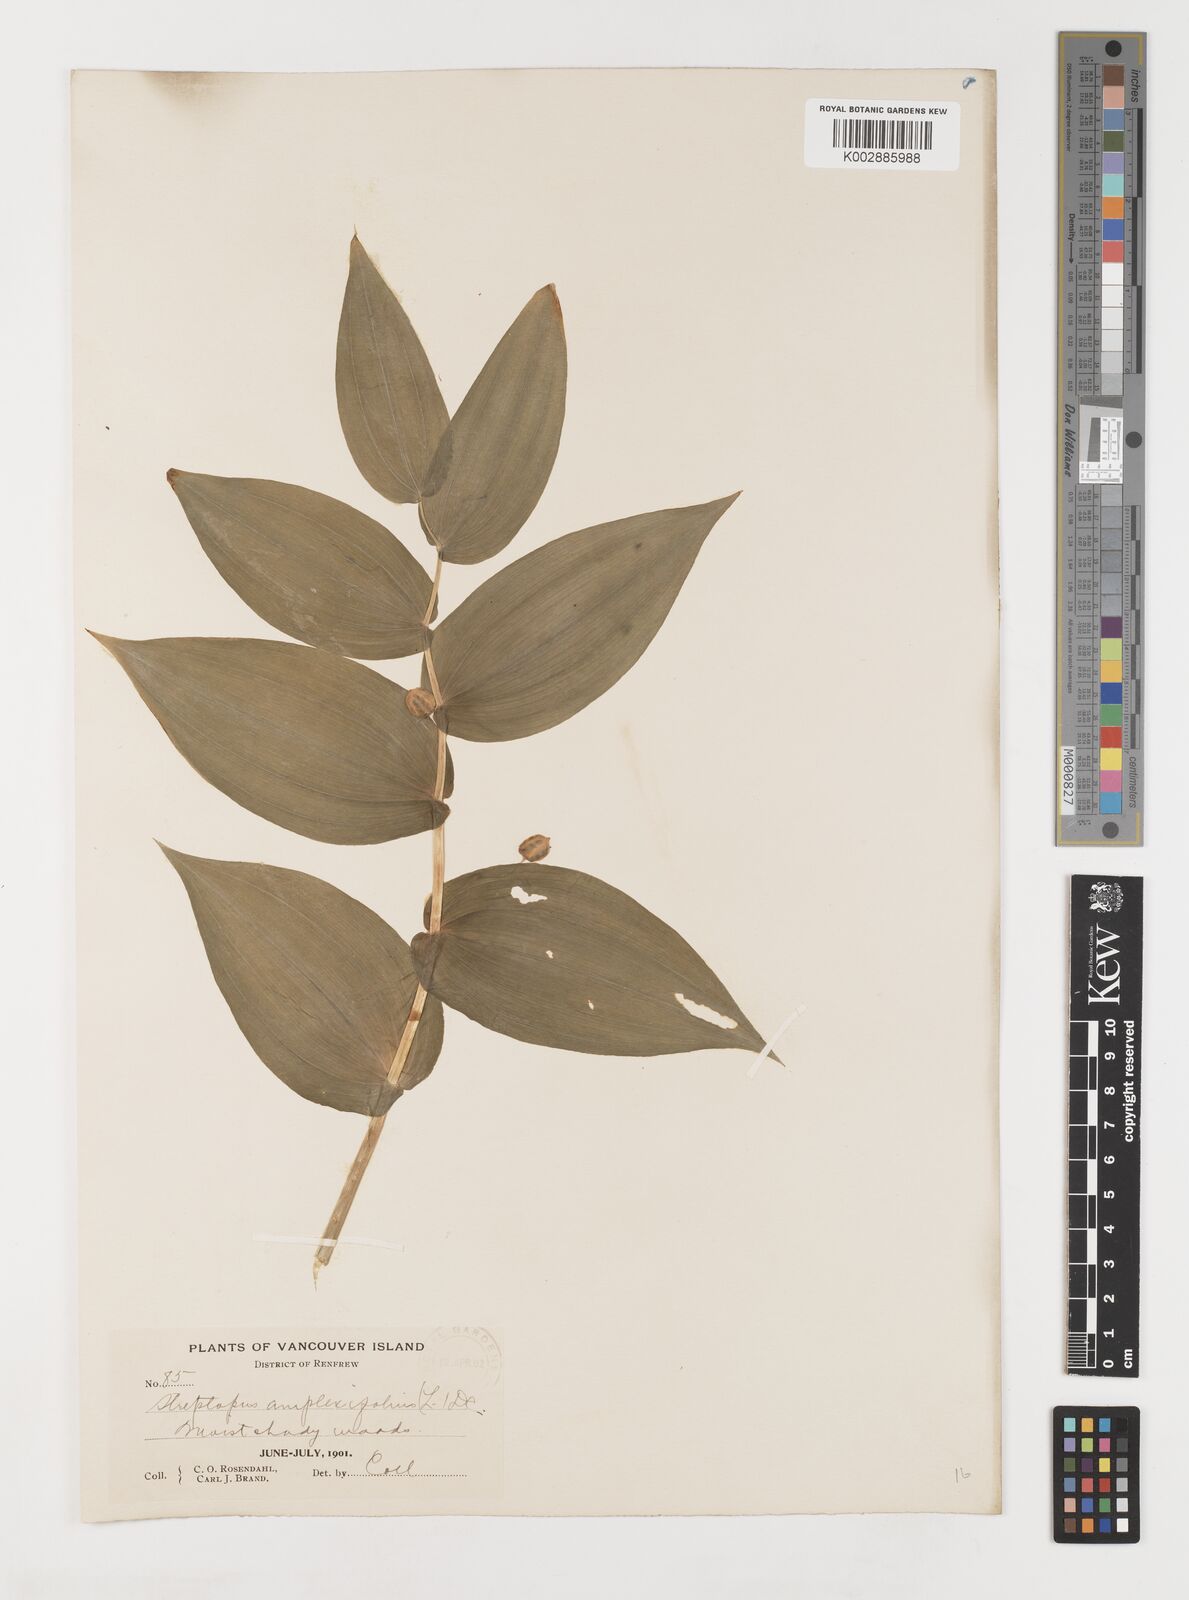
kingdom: Plantae
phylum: Tracheophyta
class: Liliopsida
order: Liliales
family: Liliaceae
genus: Streptopus
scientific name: Streptopus amplexifolius
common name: Clasp twisted stalk
